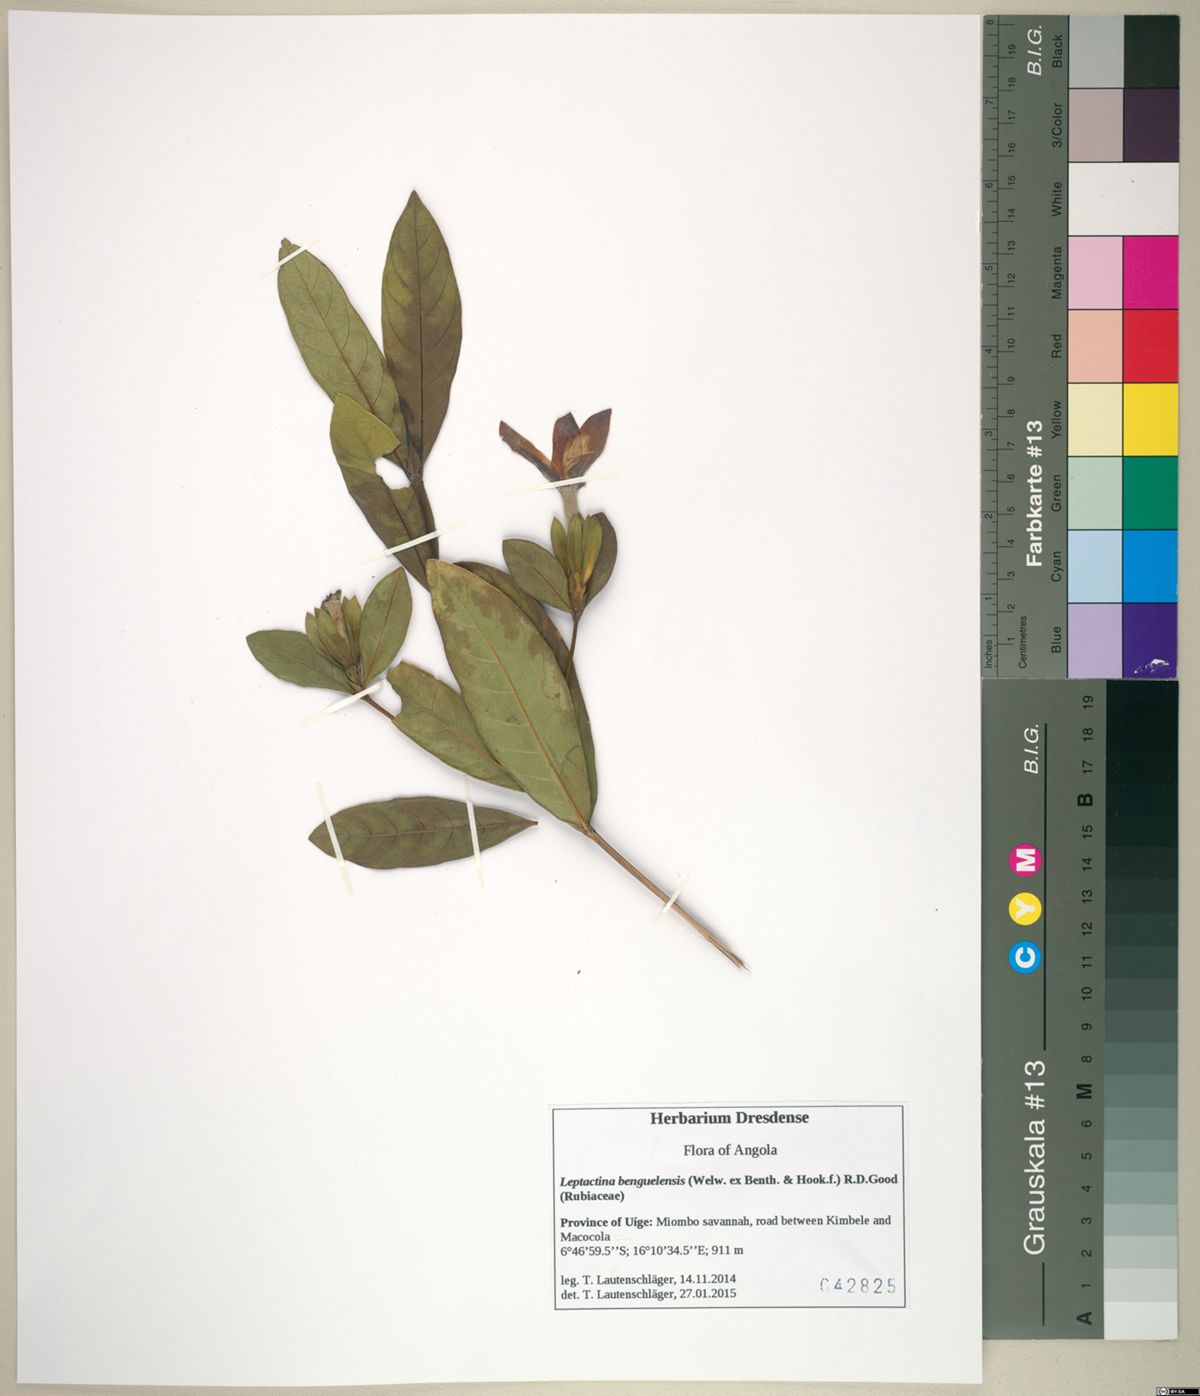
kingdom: Plantae
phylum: Tracheophyta
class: Magnoliopsida
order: Gentianales
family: Rubiaceae
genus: Leptactina
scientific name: Leptactina benguelensis
